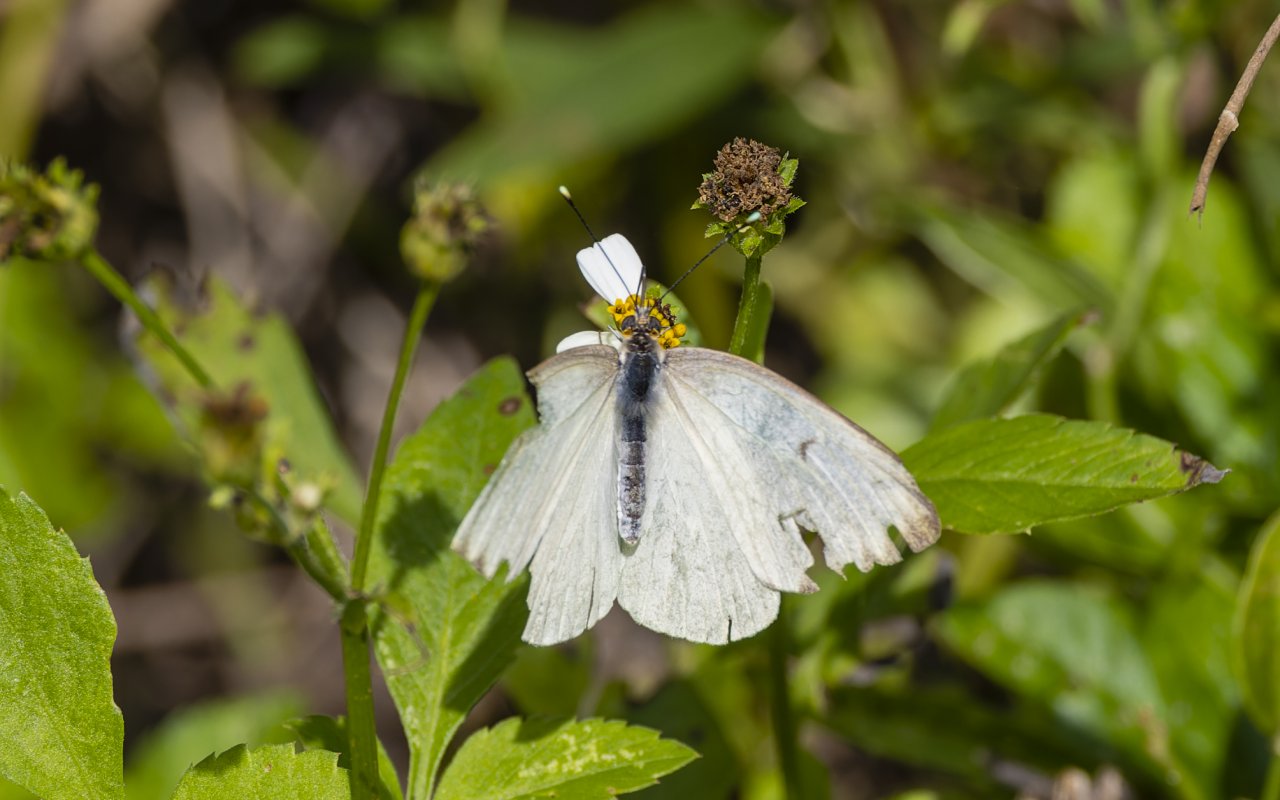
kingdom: Animalia
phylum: Arthropoda
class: Insecta
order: Lepidoptera
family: Pieridae
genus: Ascia
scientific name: Ascia monuste
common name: Great Southern White
